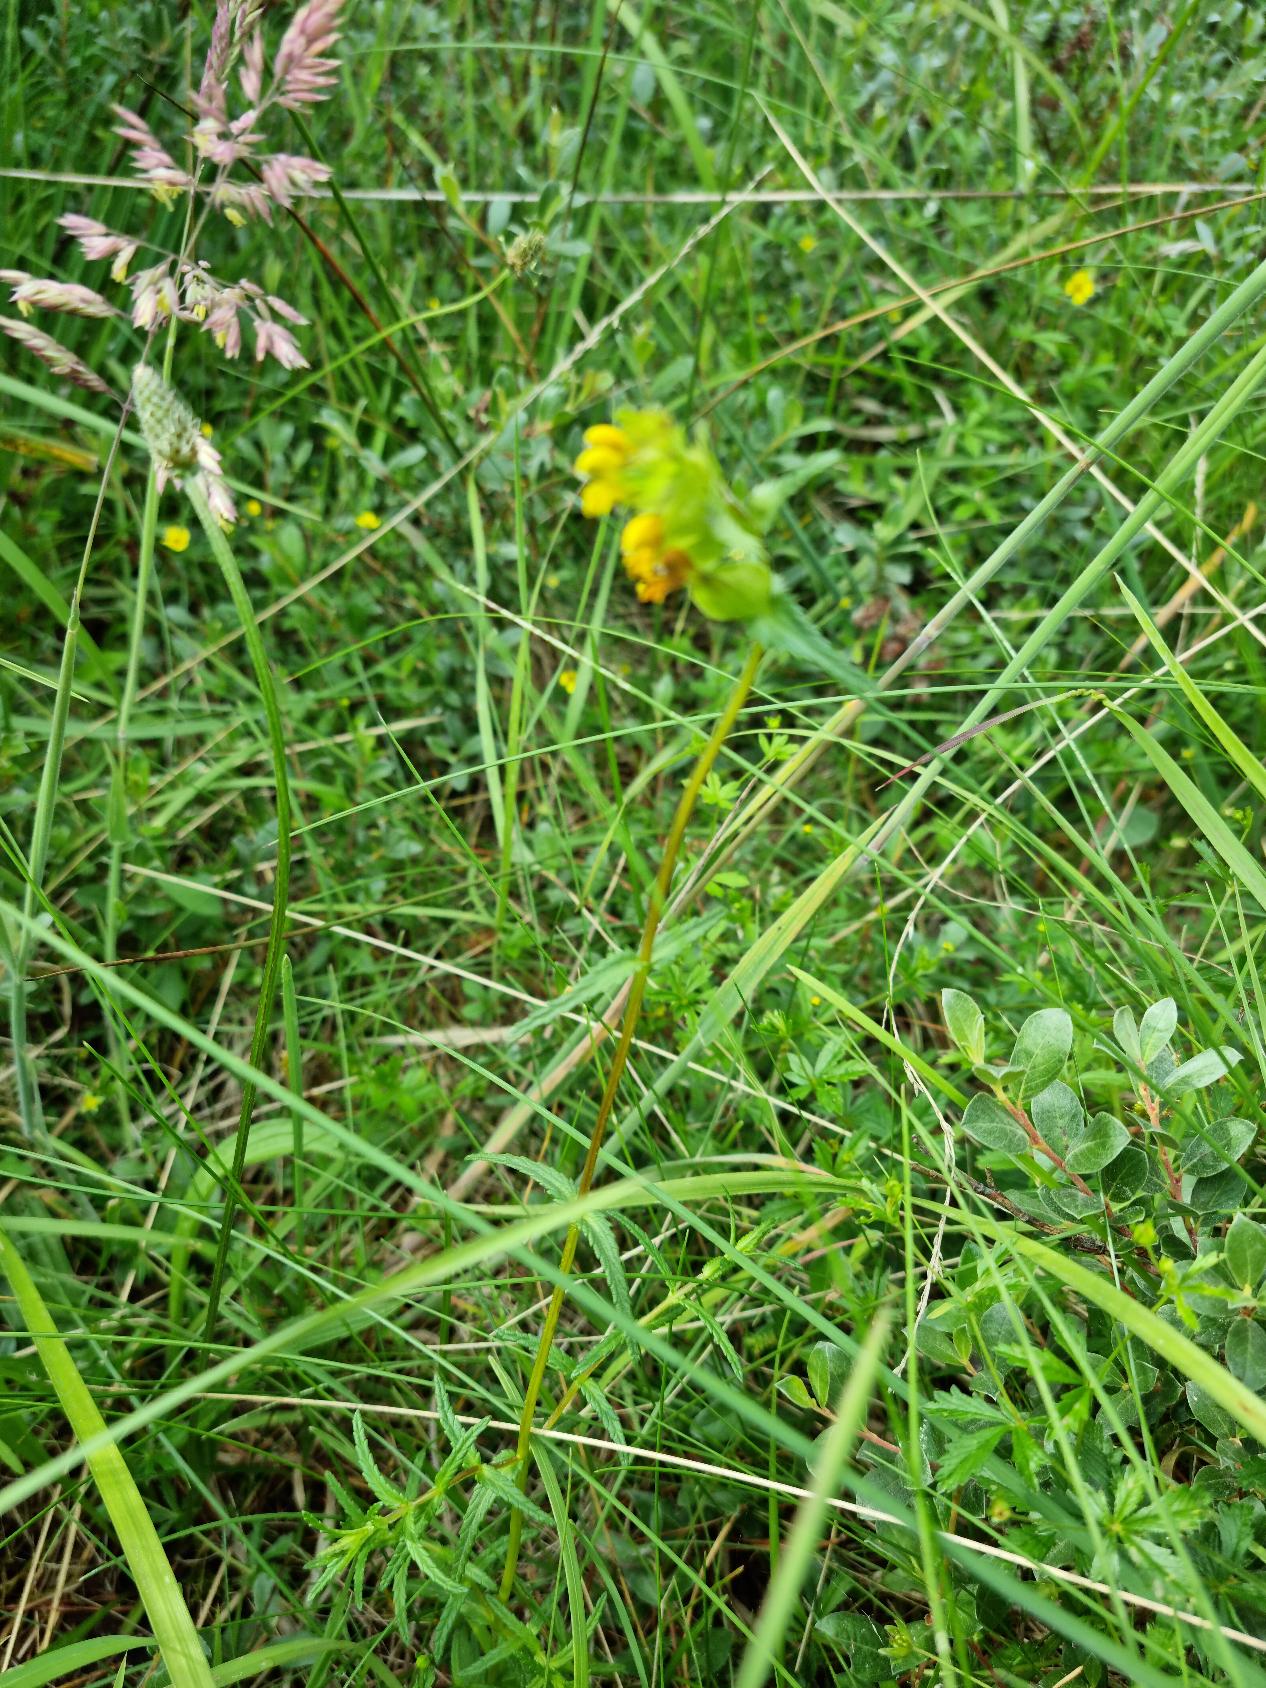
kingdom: Plantae
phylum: Tracheophyta
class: Magnoliopsida
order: Lamiales
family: Orobanchaceae
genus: Rhinanthus
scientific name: Rhinanthus
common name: Skjallerslægten
